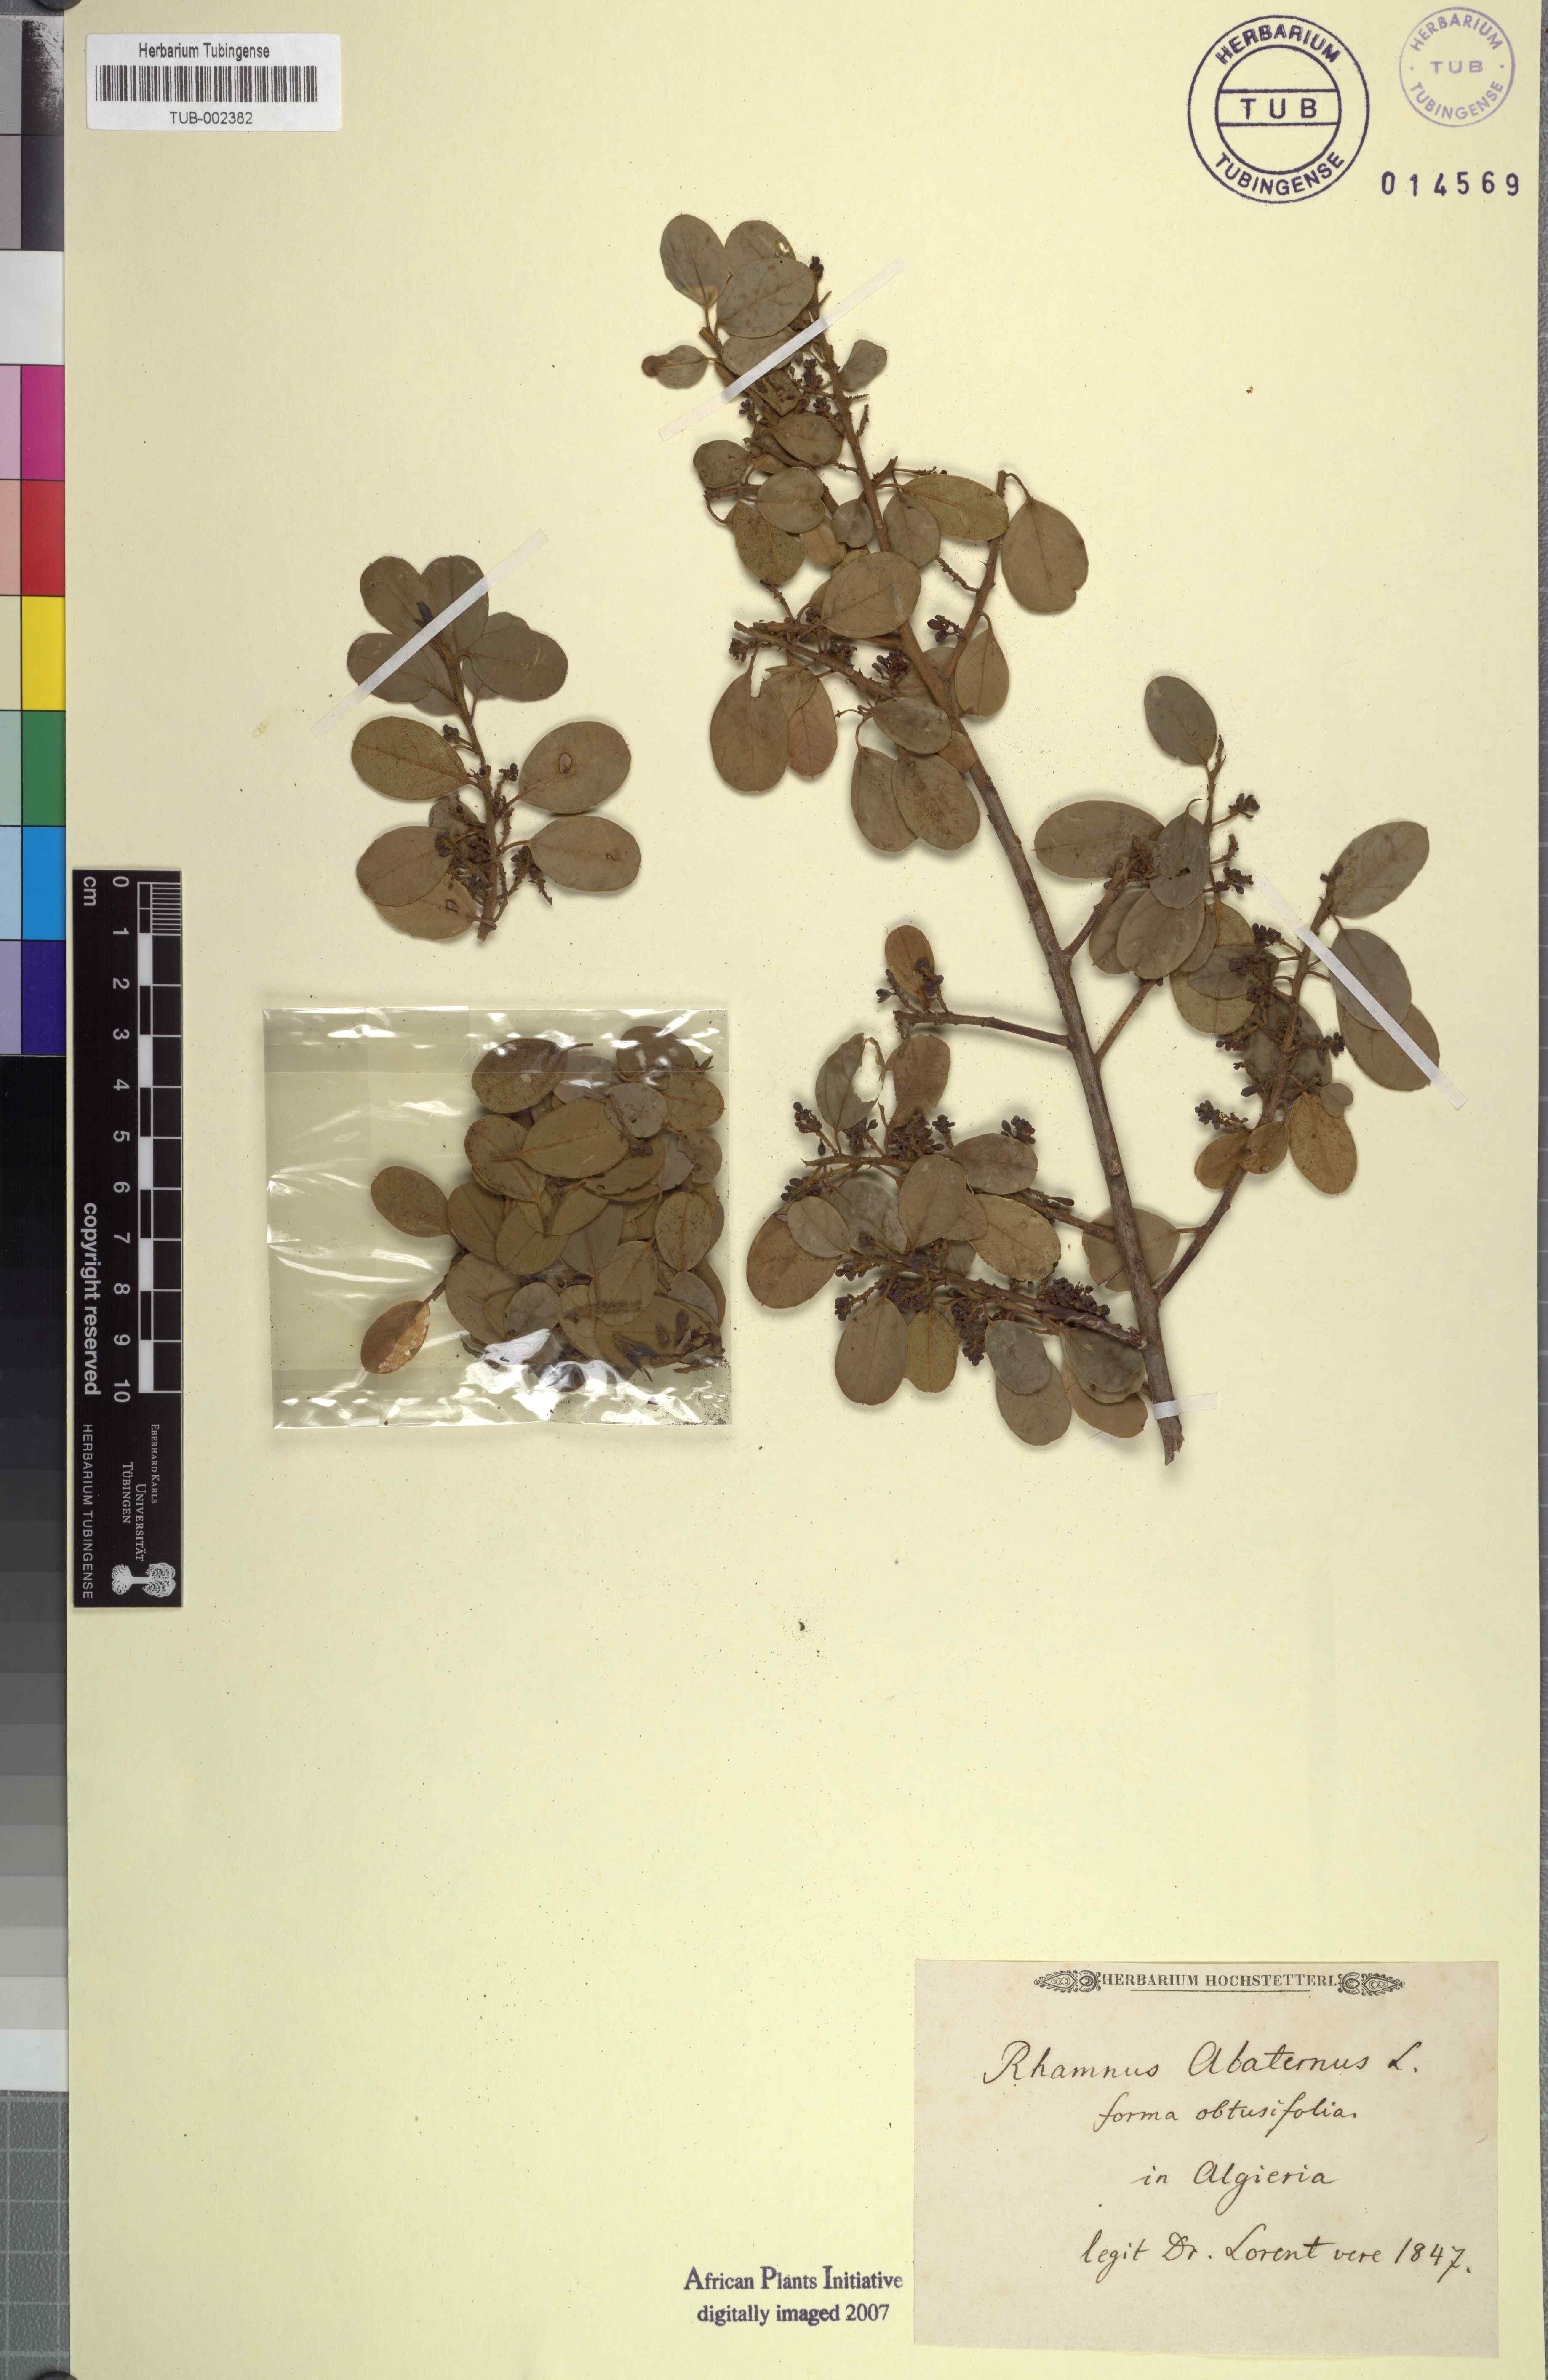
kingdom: Plantae
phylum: Tracheophyta
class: Magnoliopsida
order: Rosales
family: Rhamnaceae
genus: Rhamnus
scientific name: Rhamnus alaternus
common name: Mediterranean buckthorn
